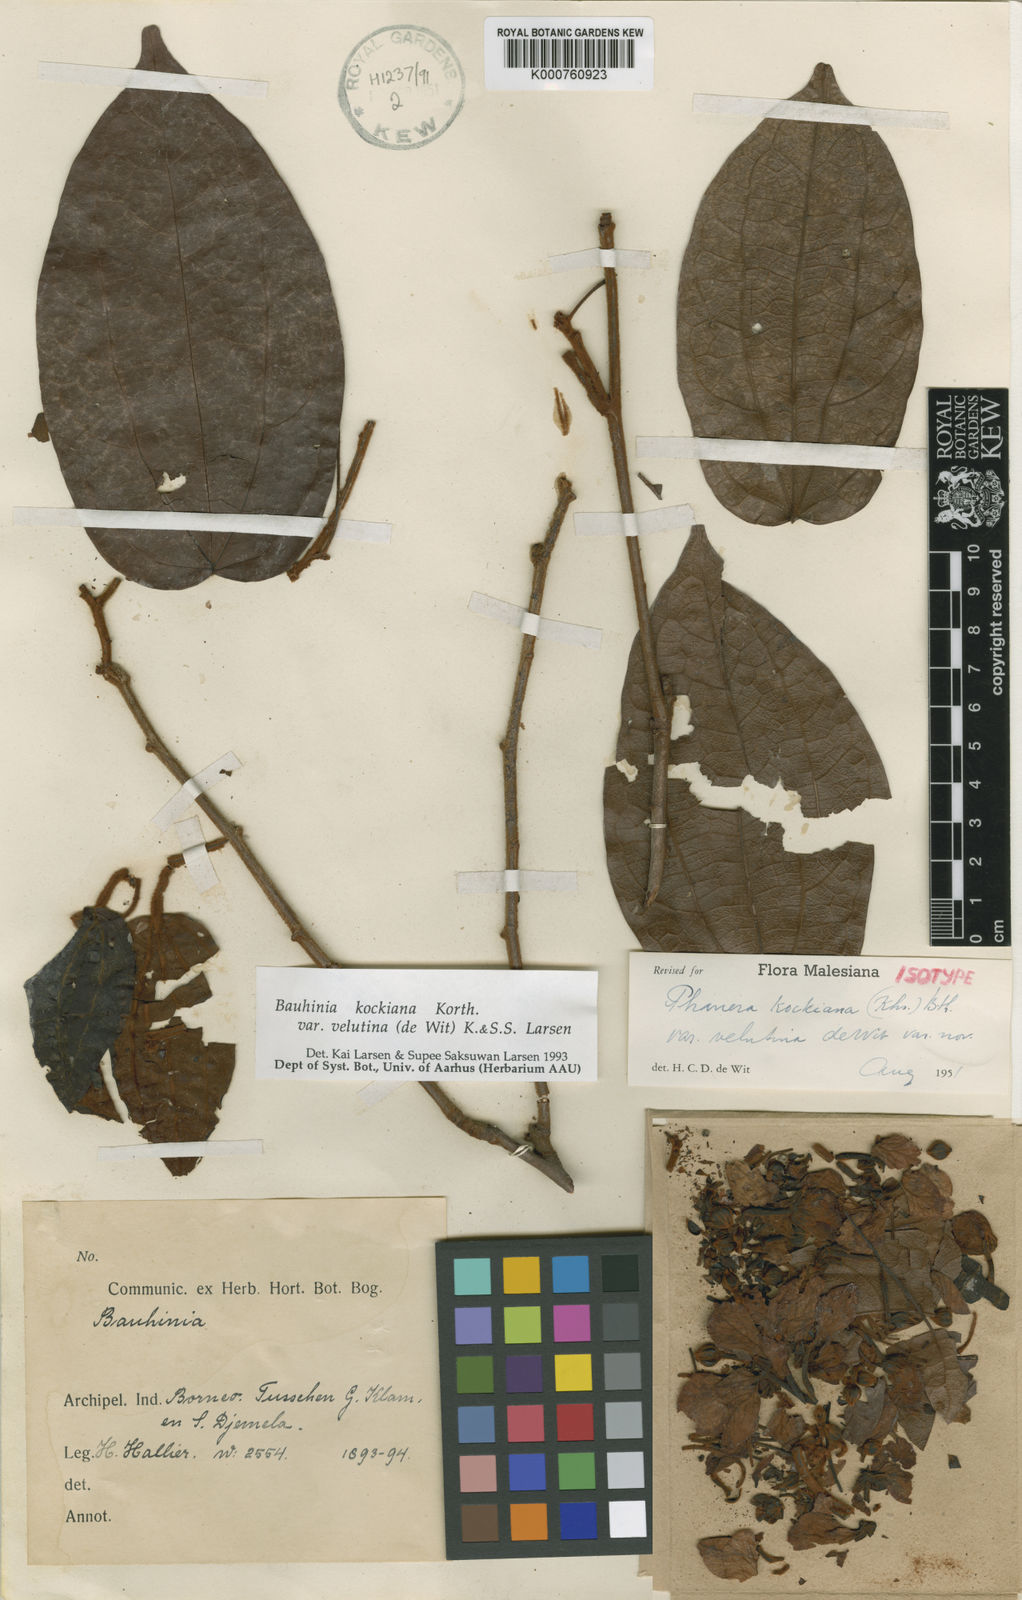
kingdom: Plantae
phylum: Tracheophyta
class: Magnoliopsida
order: Fabales
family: Fabaceae
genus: Phanera
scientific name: Phanera kockiana
